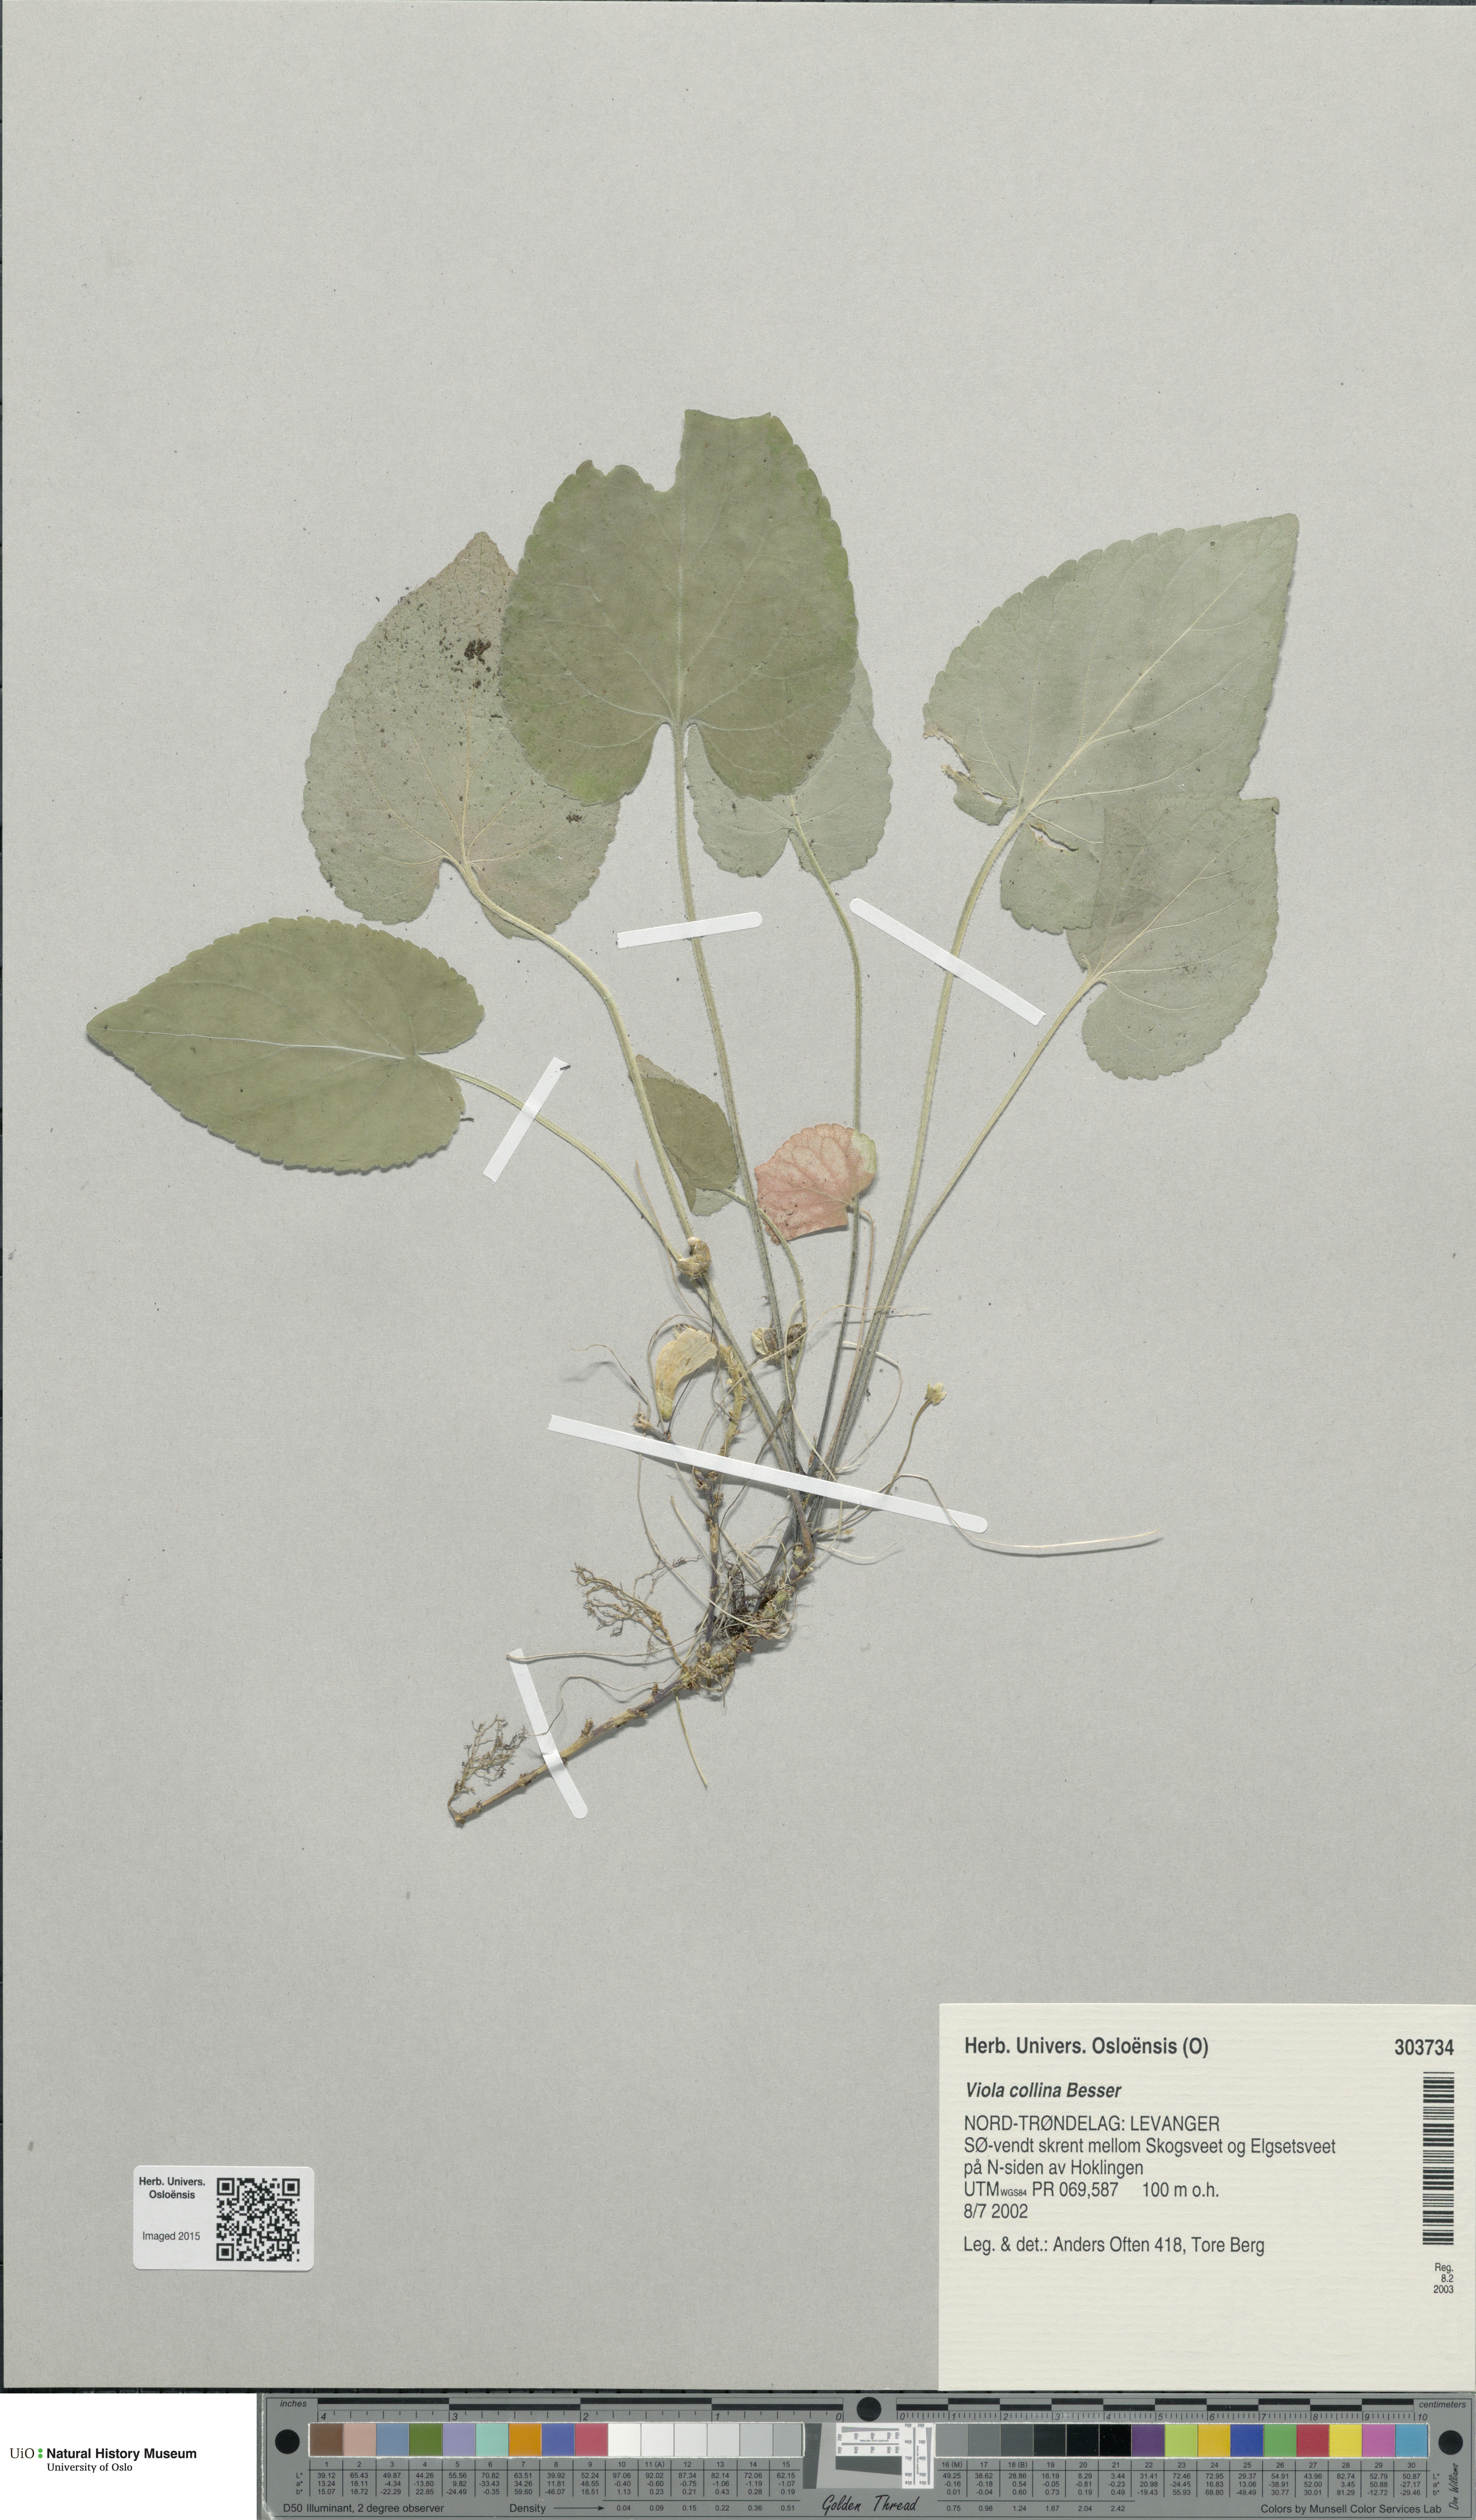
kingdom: Plantae
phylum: Tracheophyta
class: Magnoliopsida
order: Malpighiales
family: Violaceae
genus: Viola
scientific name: Viola collina
